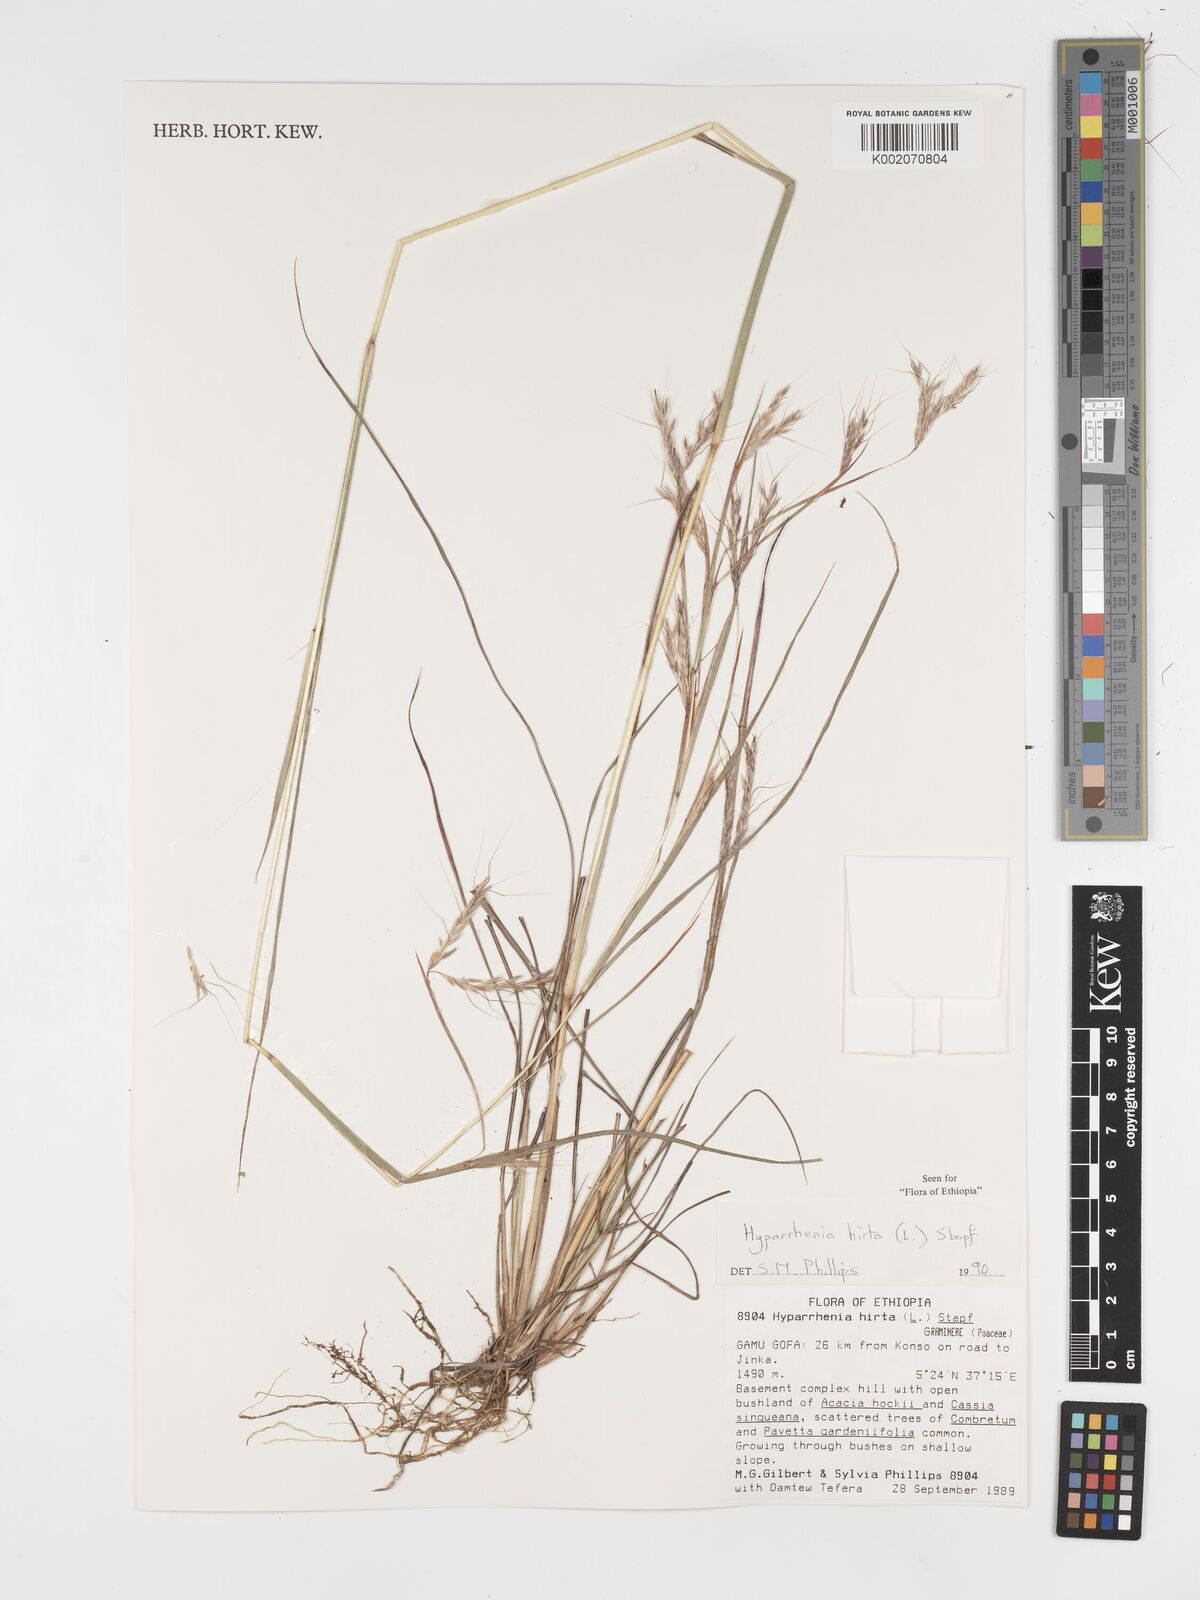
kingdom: Plantae
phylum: Tracheophyta
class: Liliopsida
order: Poales
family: Poaceae
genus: Hyparrhenia
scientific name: Hyparrhenia hirta
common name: Thatching grass
